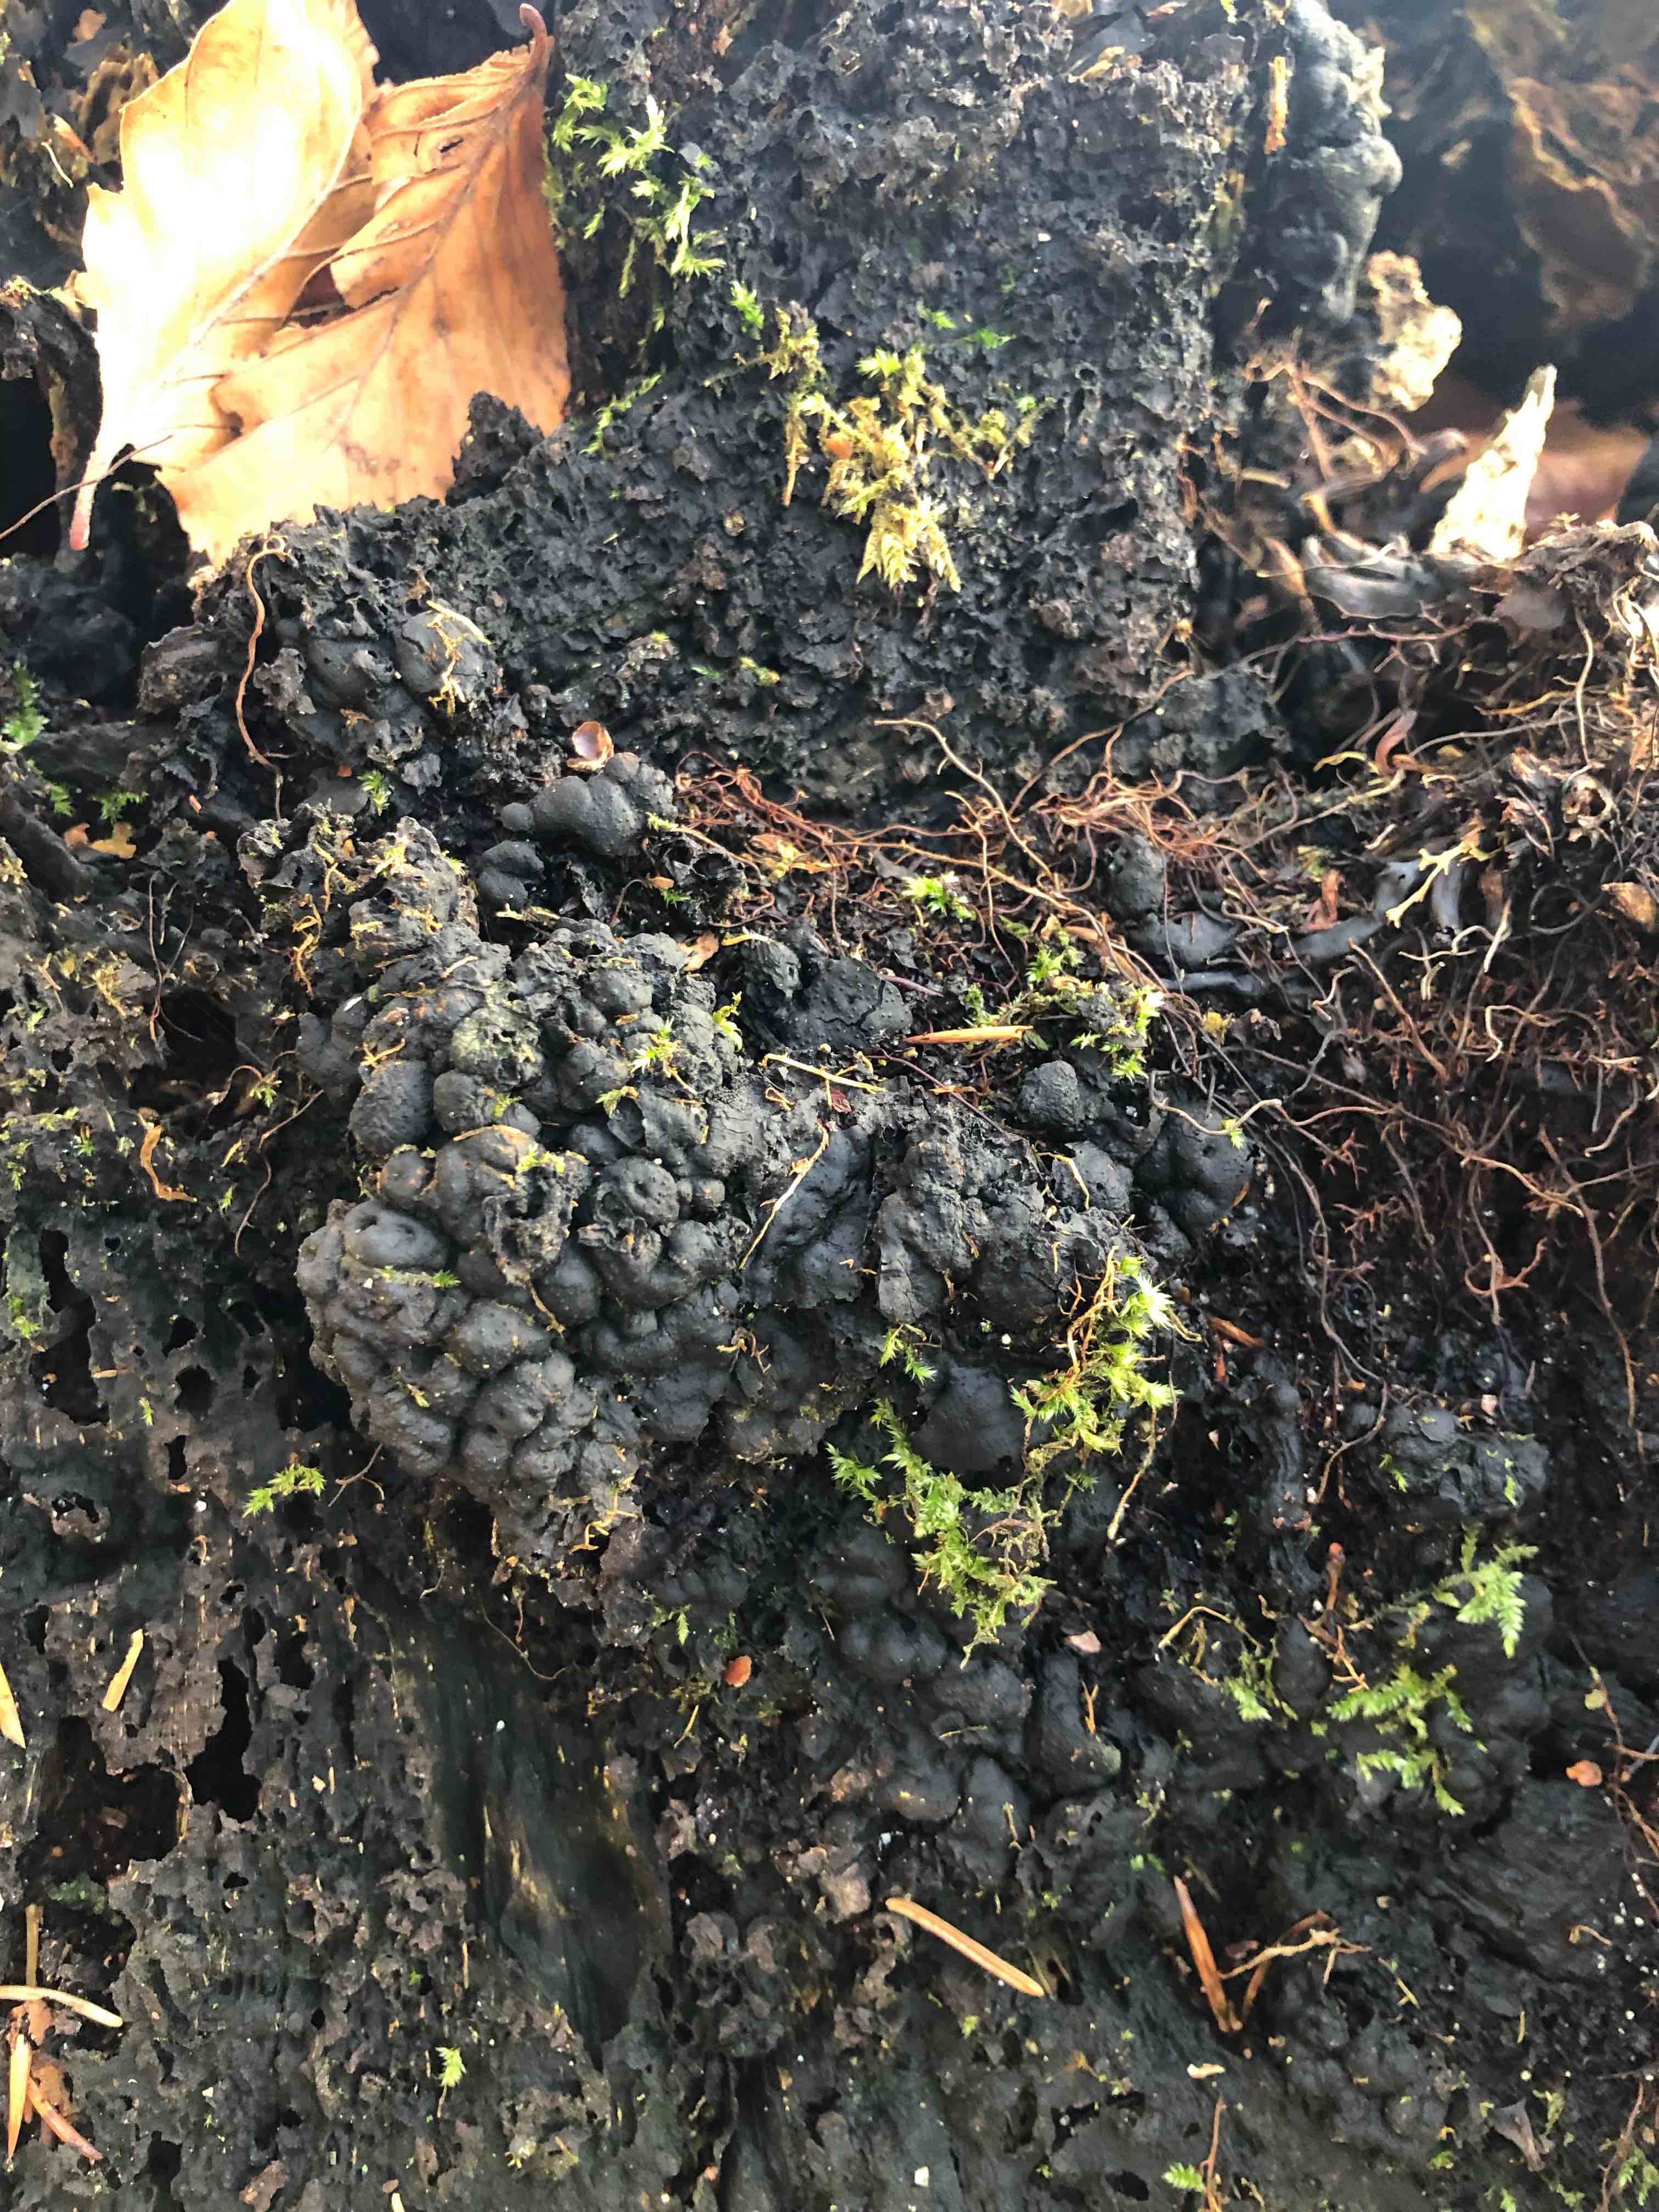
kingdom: Fungi
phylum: Ascomycota
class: Sordariomycetes
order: Xylariales
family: Xylariaceae
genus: Kretzschmaria
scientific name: Kretzschmaria deusta
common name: stor kulsvamp
